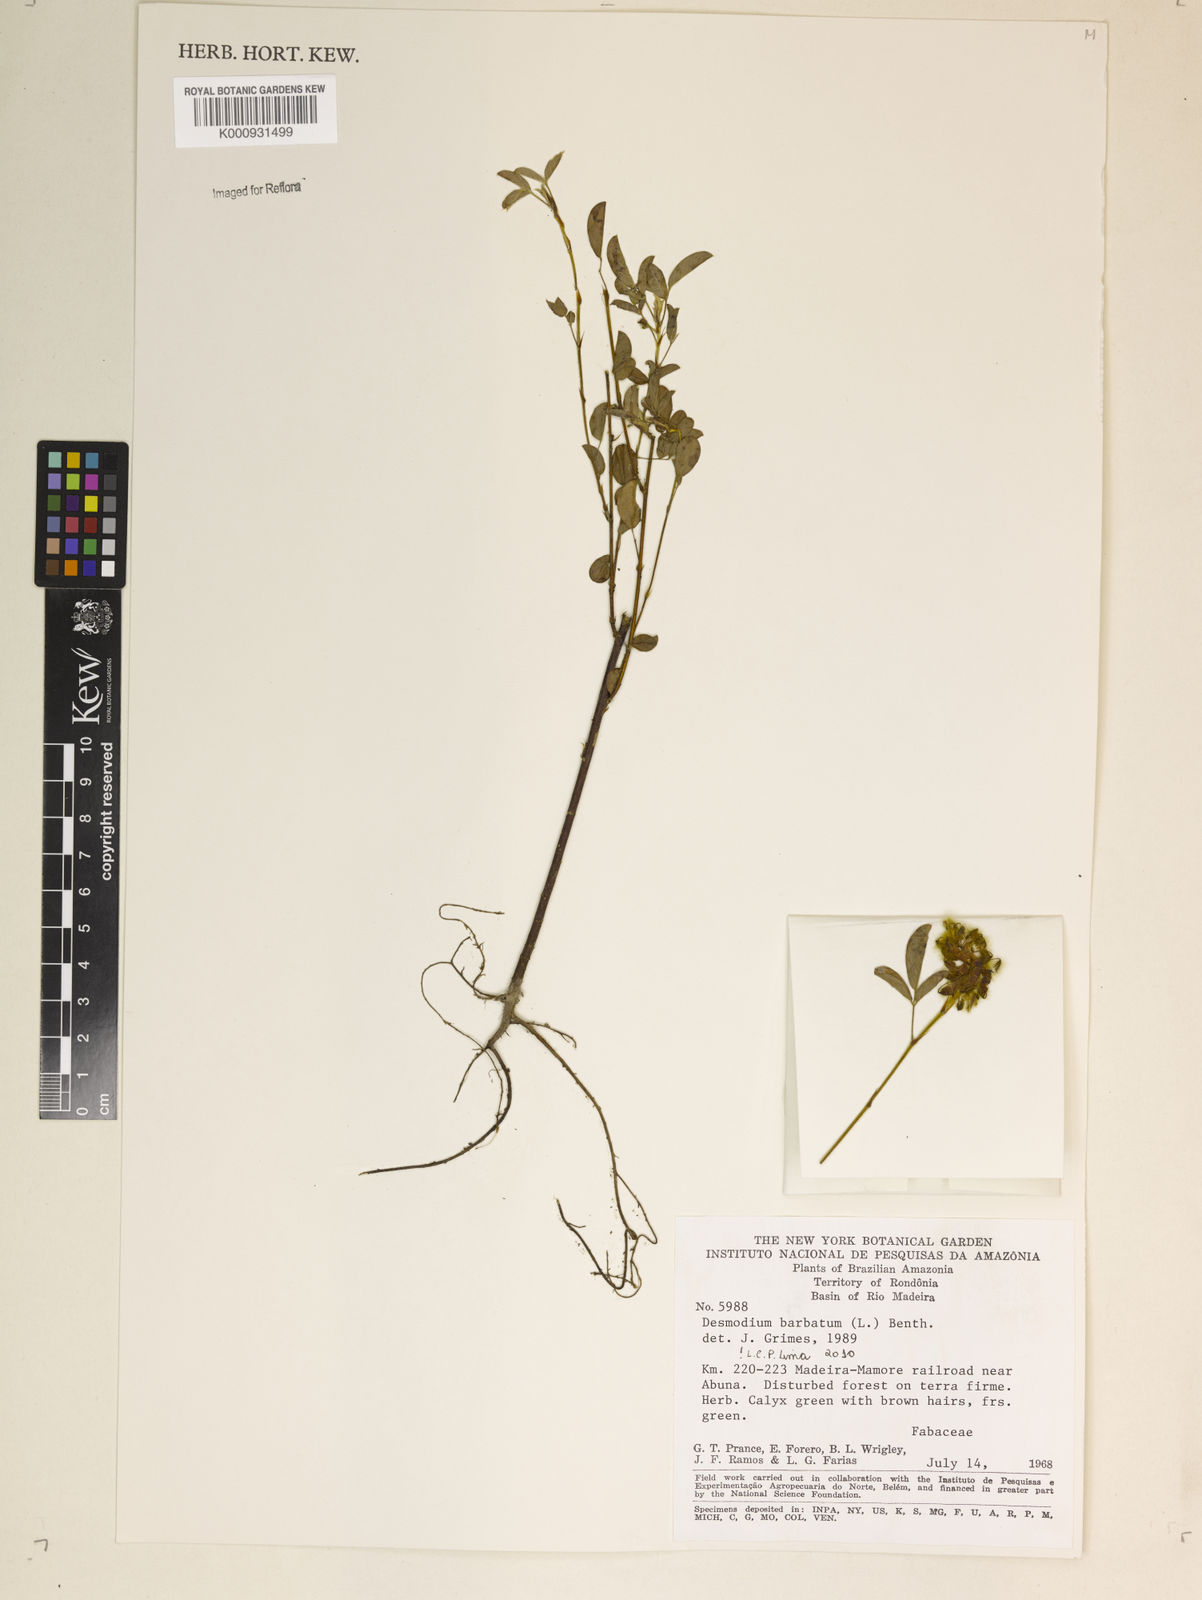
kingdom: Plantae
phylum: Tracheophyta
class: Magnoliopsida
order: Fabales
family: Fabaceae
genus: Grona
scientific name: Grona barbata
